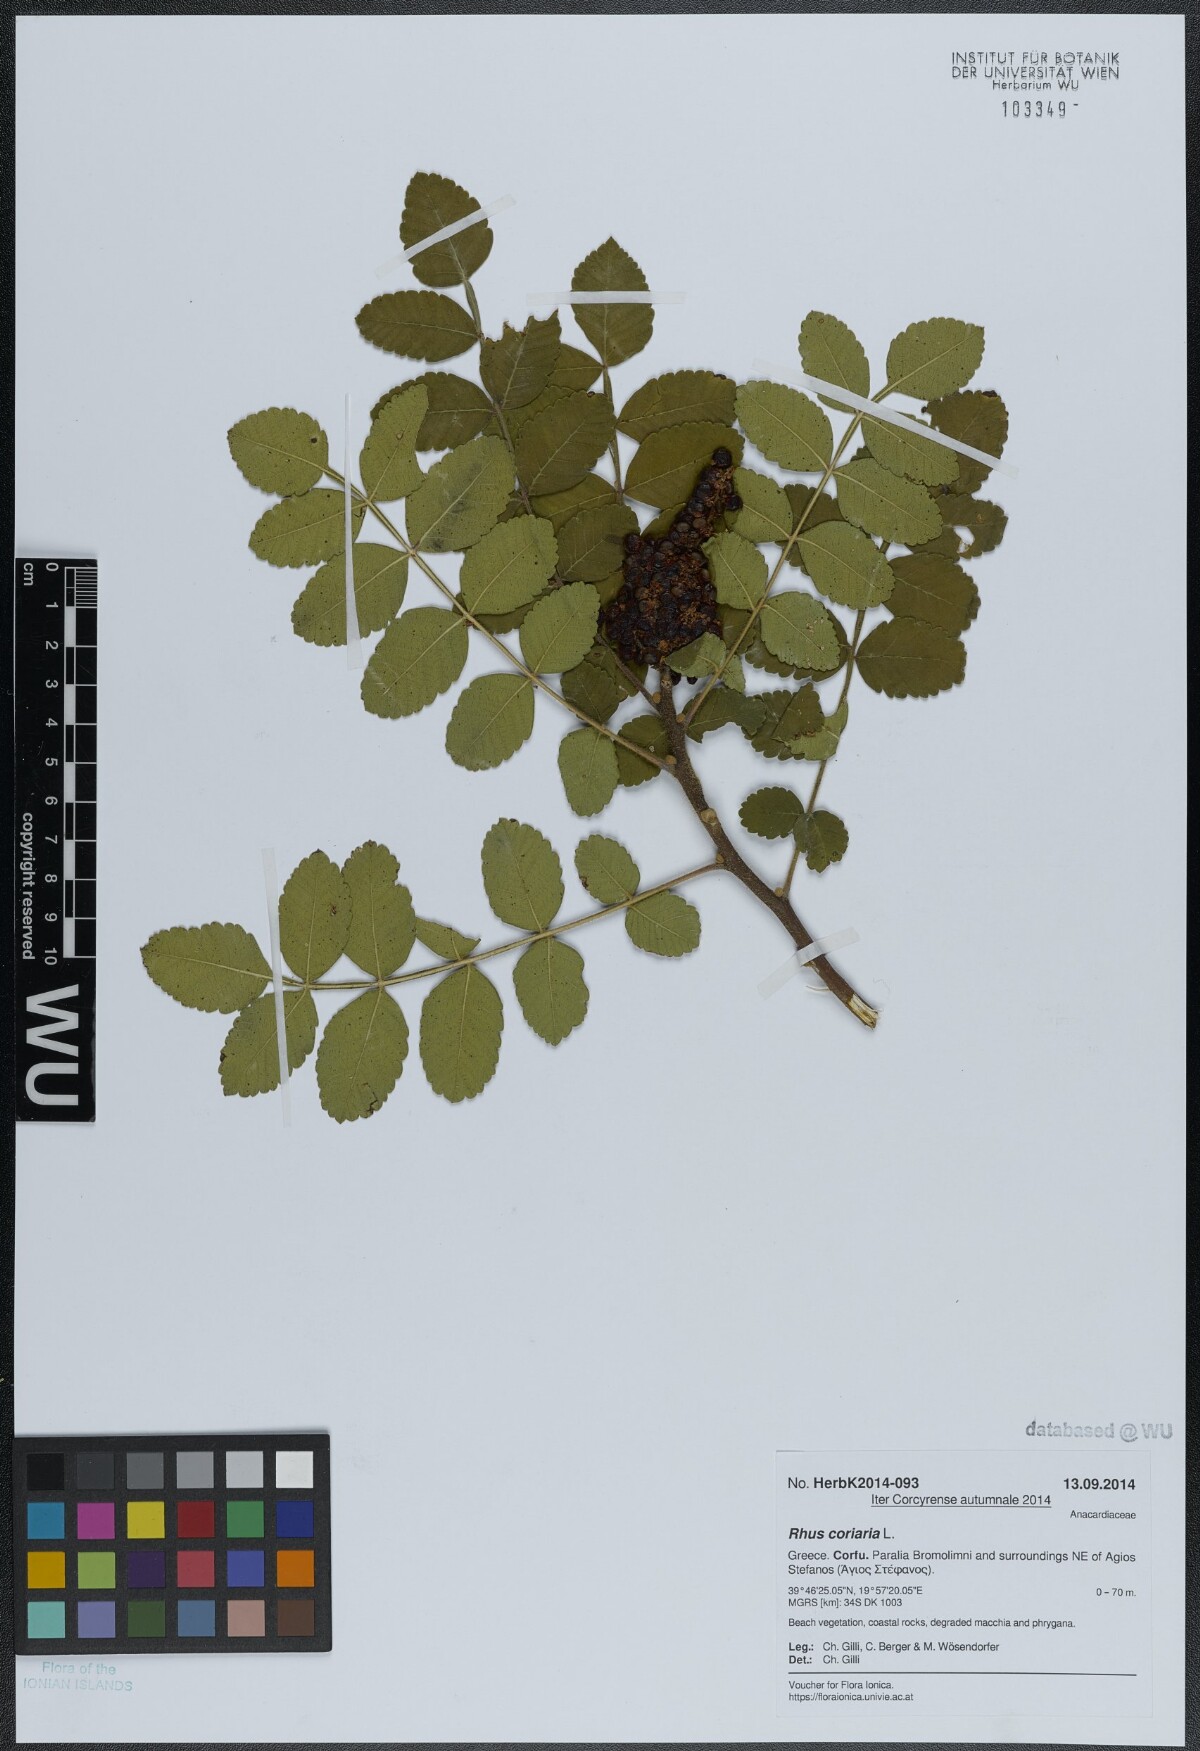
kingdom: Plantae
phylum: Tracheophyta
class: Magnoliopsida
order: Sapindales
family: Anacardiaceae
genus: Rhus
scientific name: Rhus coriaria
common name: Tanner's sumach
